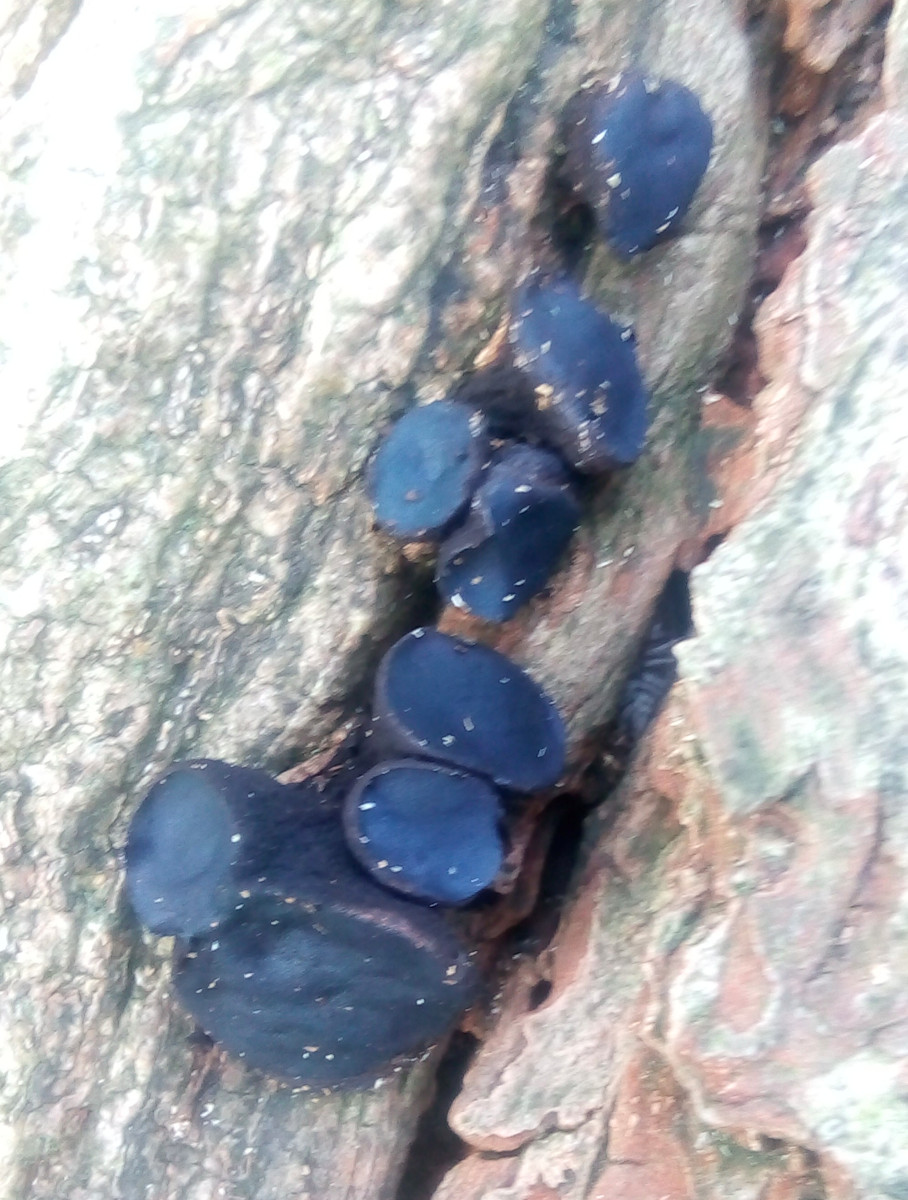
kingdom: Fungi
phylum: Ascomycota
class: Leotiomycetes
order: Phacidiales
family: Phacidiaceae
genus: Bulgaria
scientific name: Bulgaria inquinans
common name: afsmittende topsvamp
